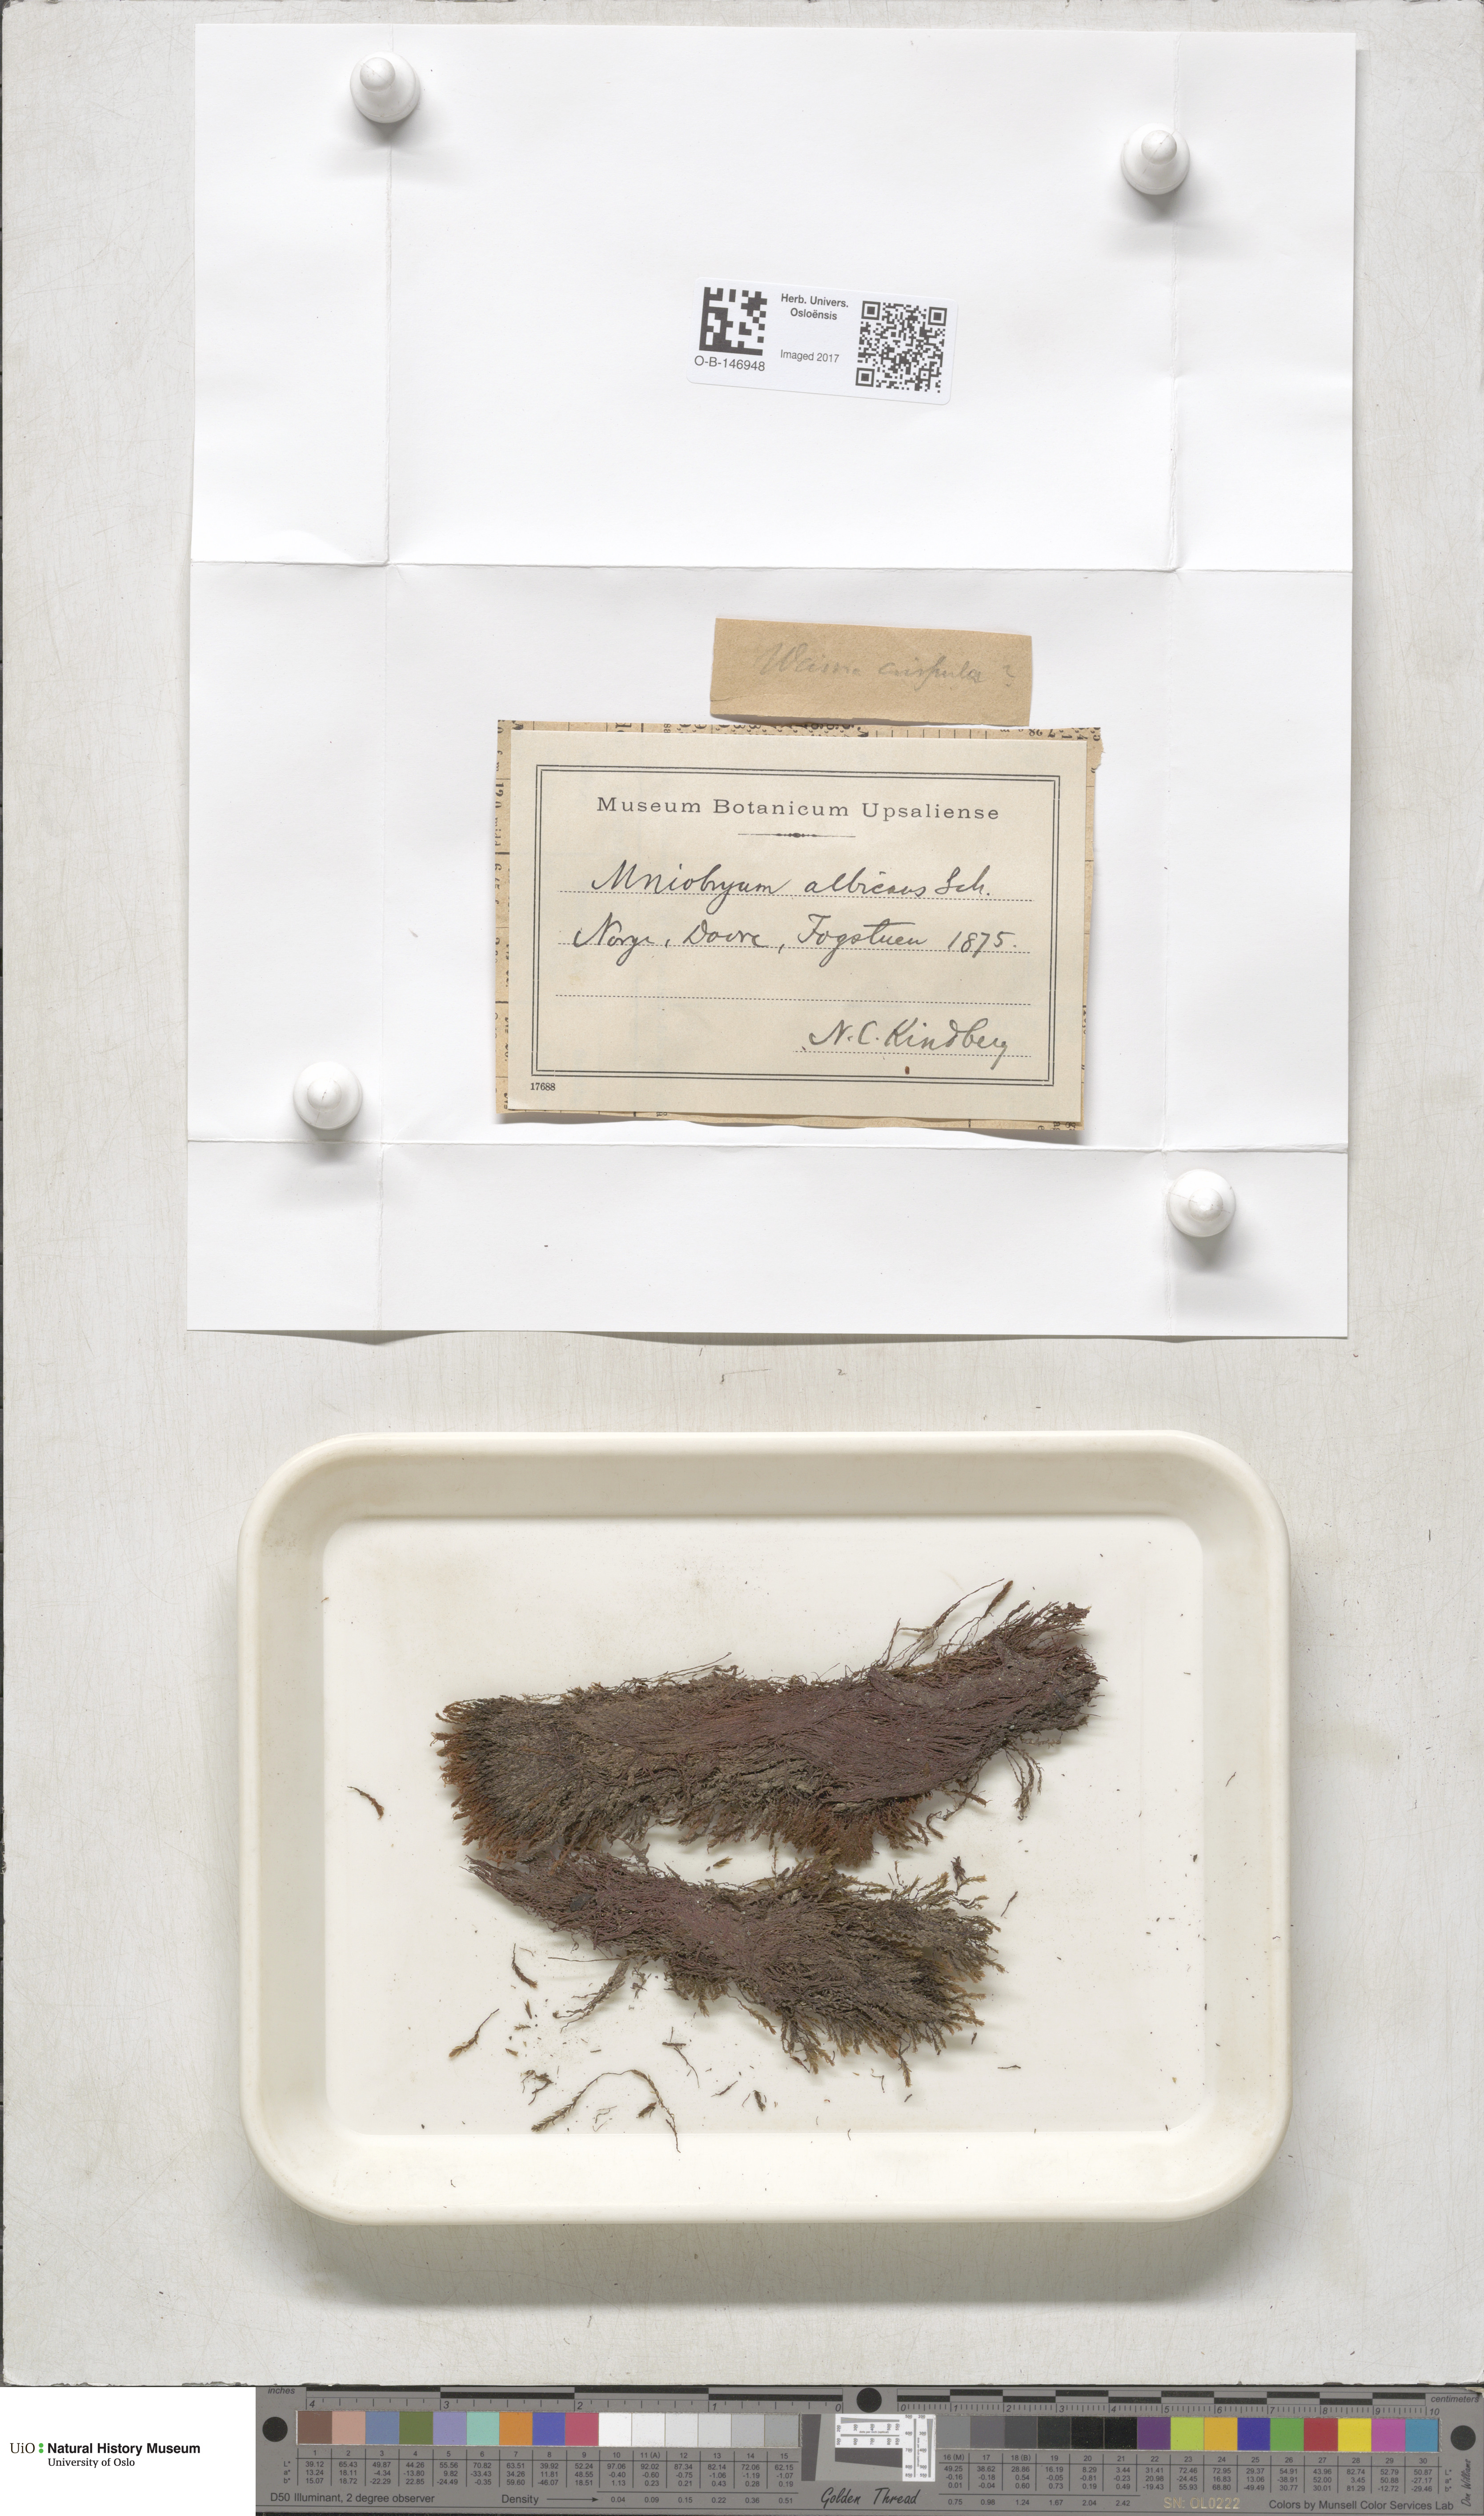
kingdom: Plantae
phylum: Bryophyta
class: Bryopsida
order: Bryales
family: Mniaceae
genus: Pohlia
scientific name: Pohlia wahlenbergii
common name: Wahlenberg's nodding moss
